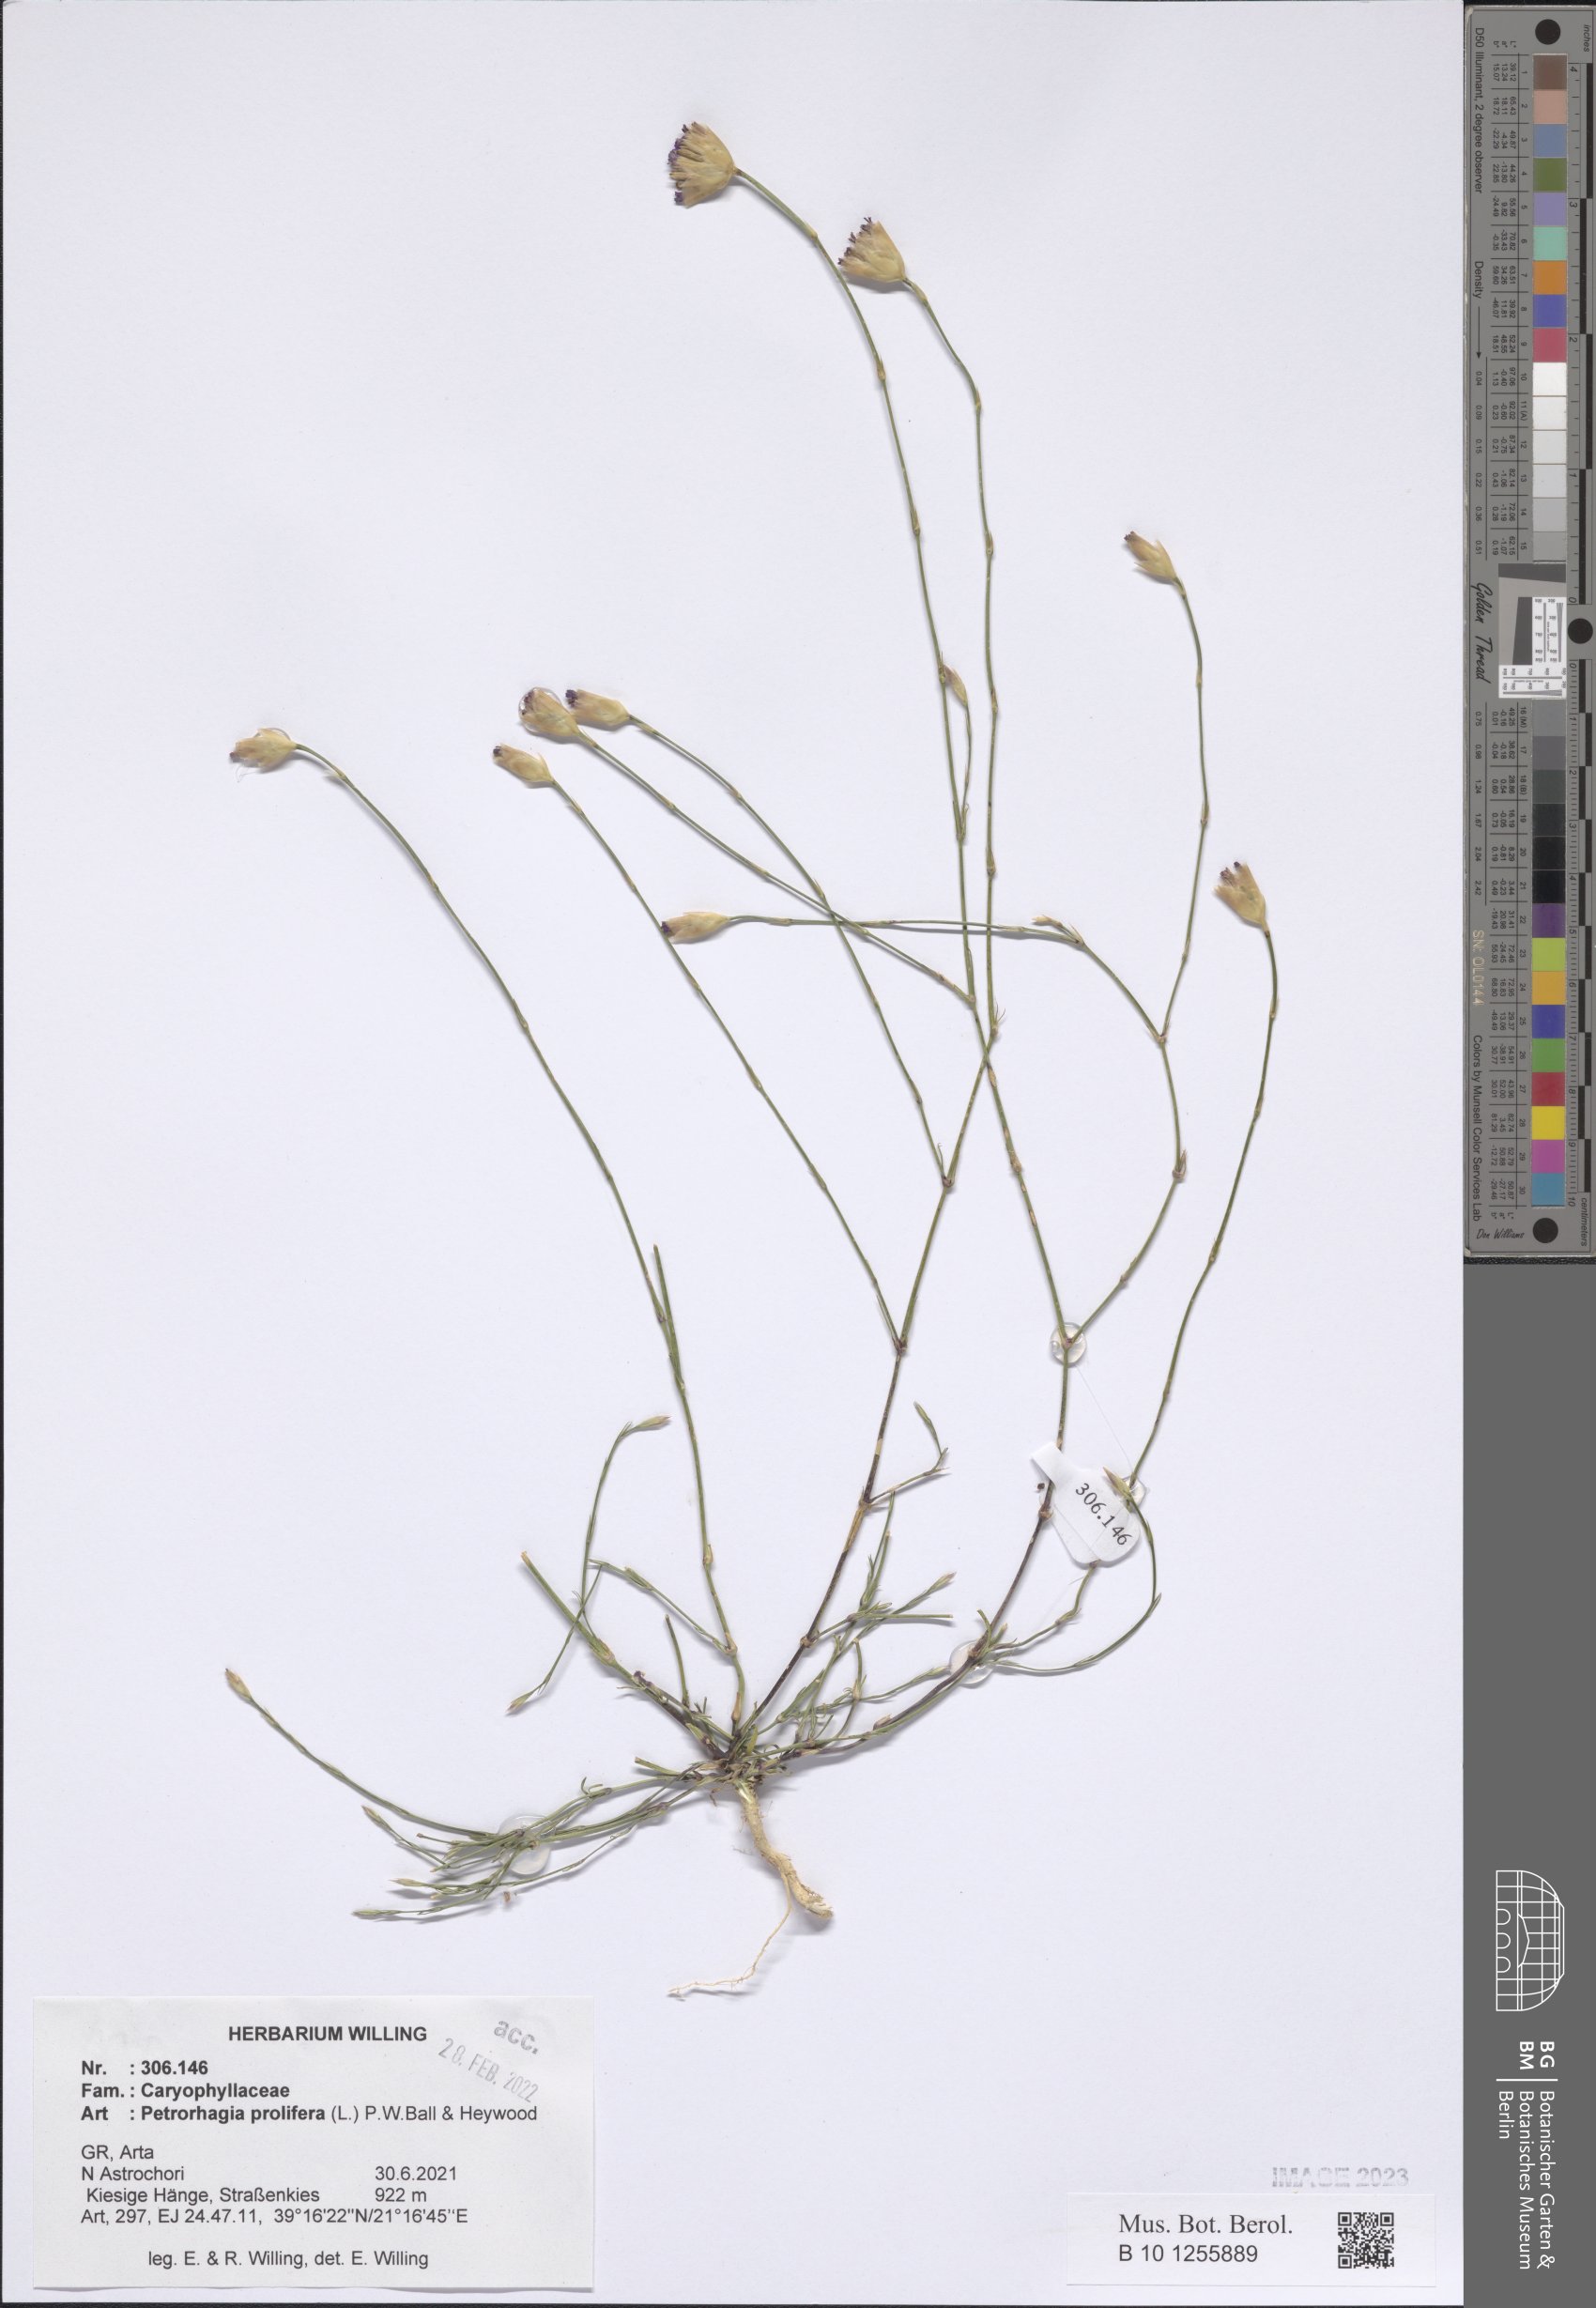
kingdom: Plantae
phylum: Tracheophyta
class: Magnoliopsida
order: Caryophyllales
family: Caryophyllaceae
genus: Petrorhagia
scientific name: Petrorhagia prolifera
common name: Proliferous pink
